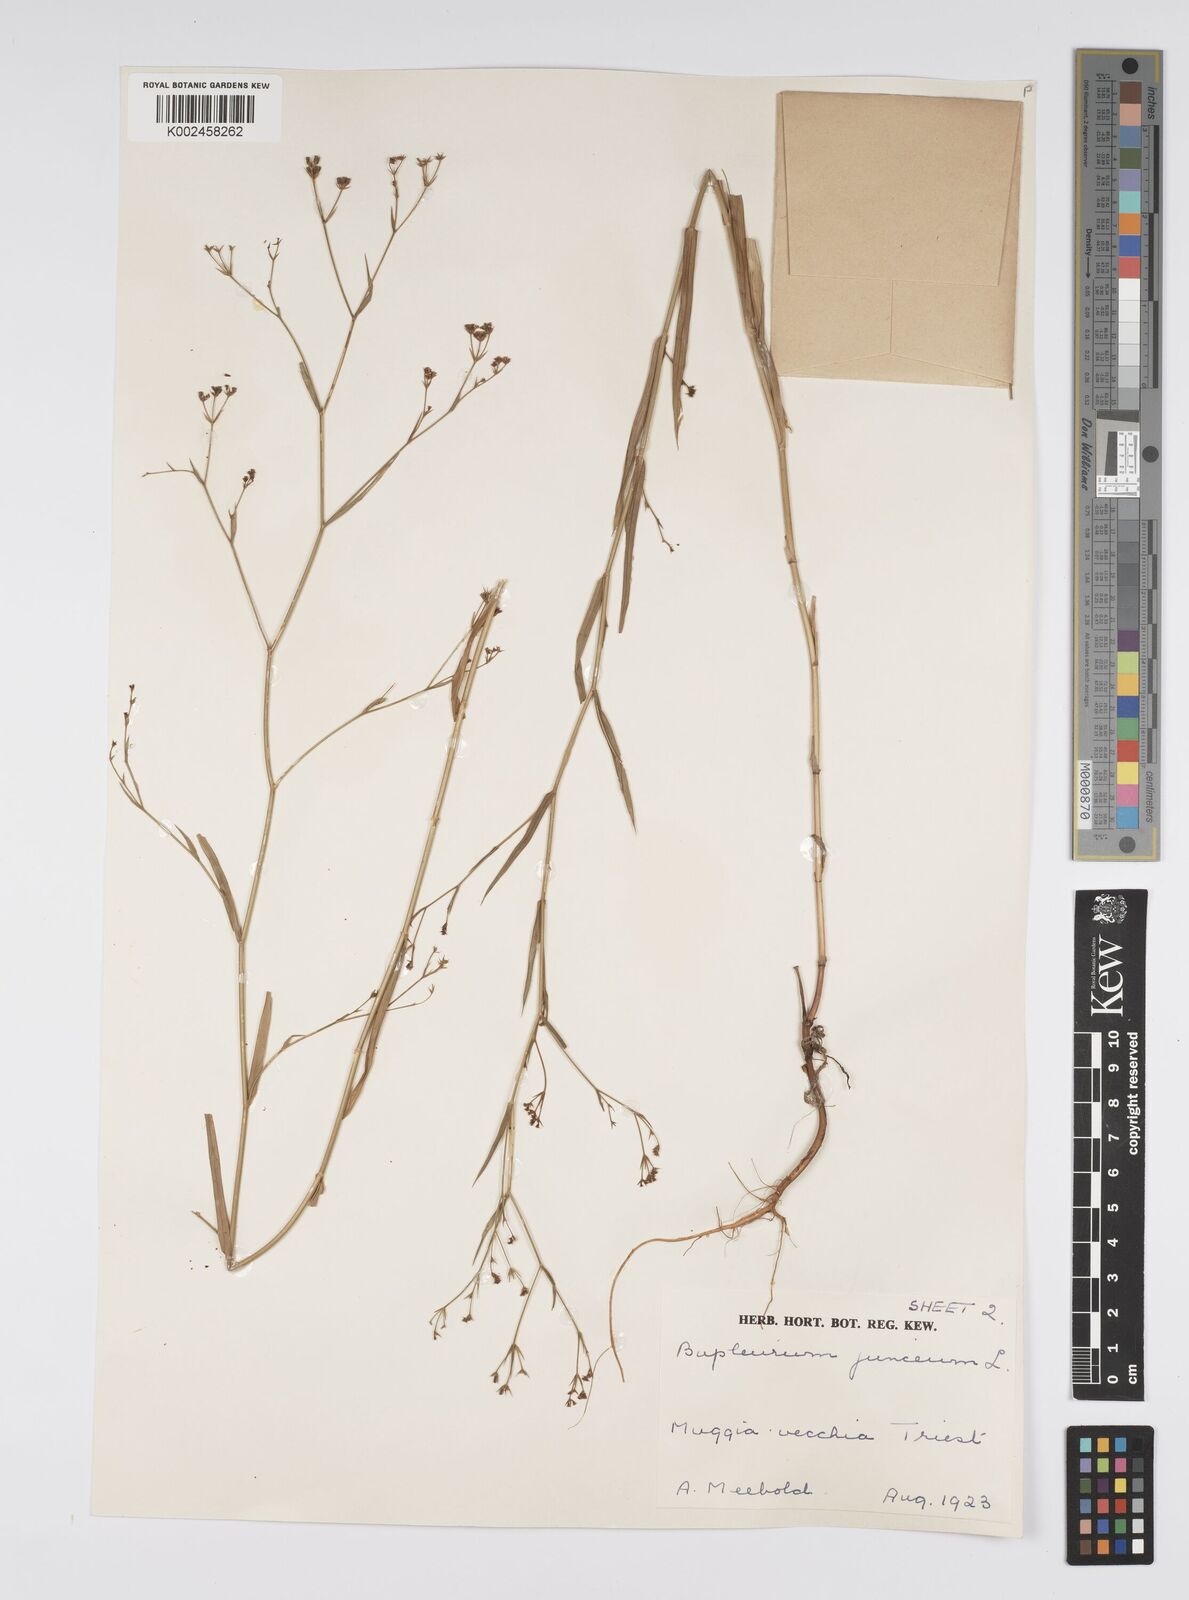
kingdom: Plantae
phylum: Tracheophyta
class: Magnoliopsida
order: Apiales
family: Apiaceae
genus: Bupleurum
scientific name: Bupleurum praealtum
